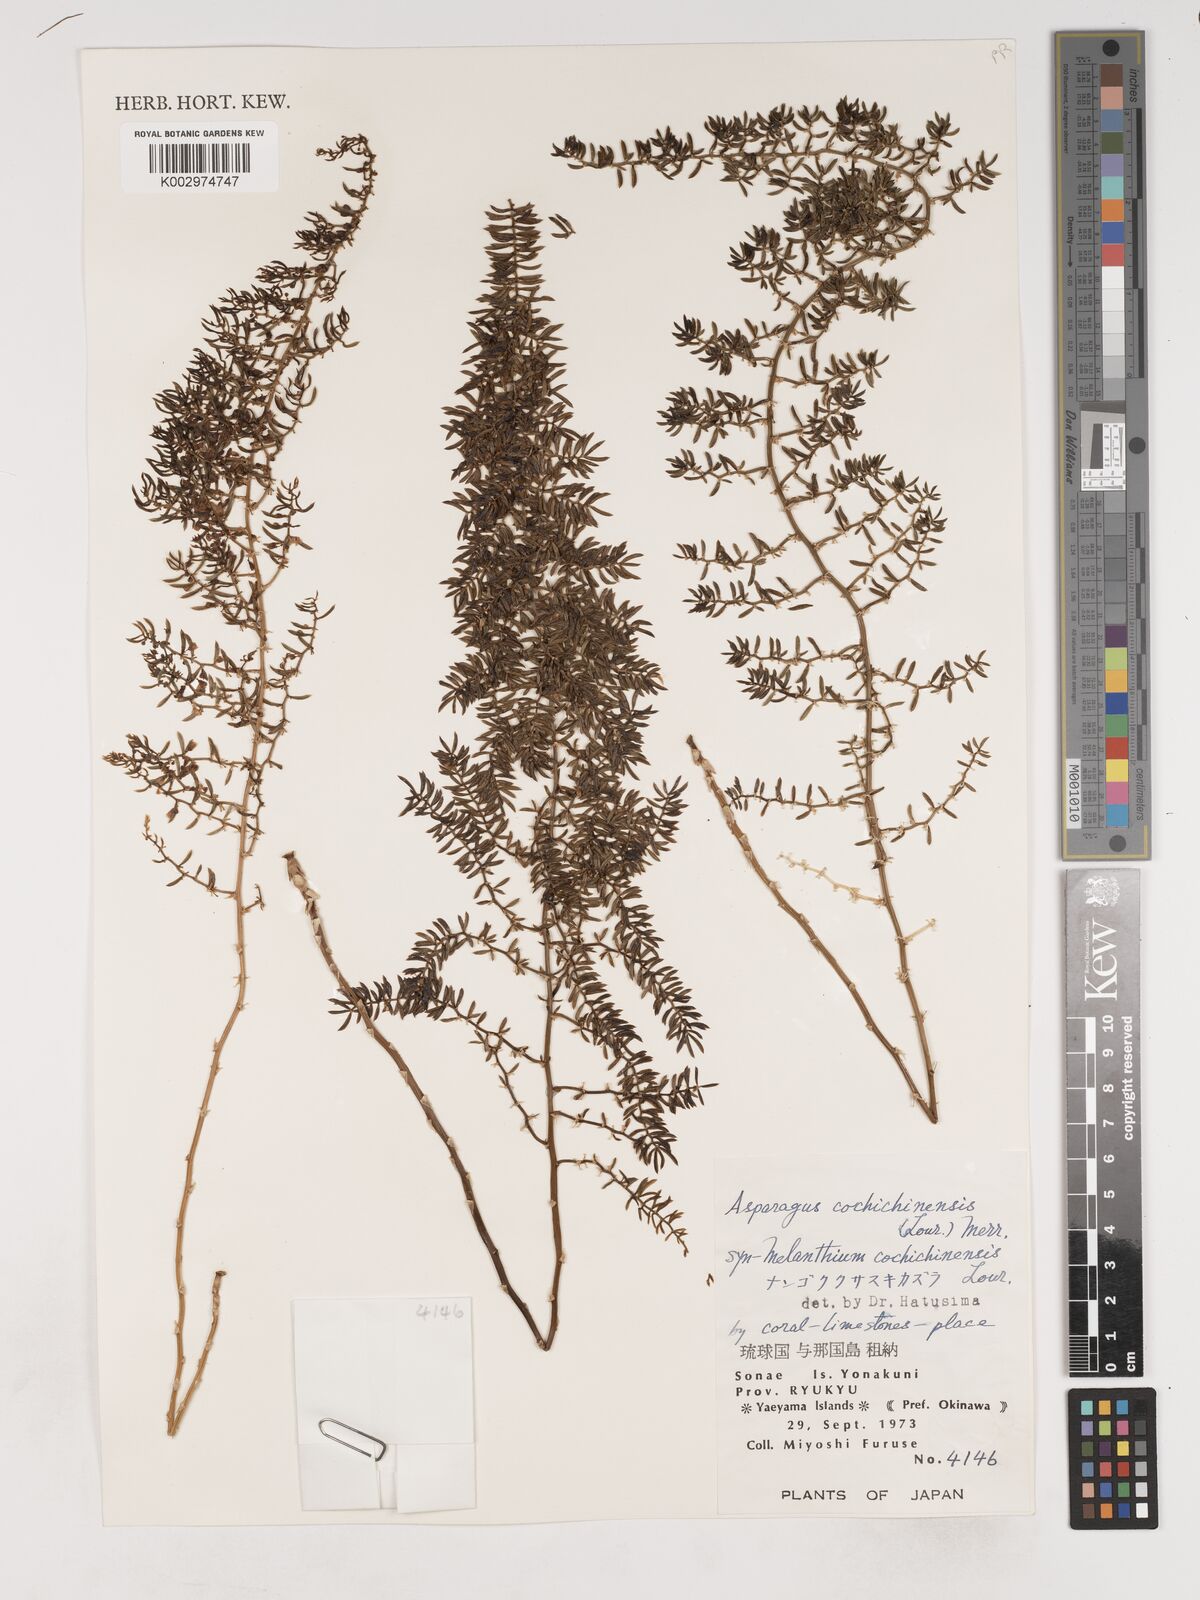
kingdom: Plantae
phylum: Tracheophyta
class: Liliopsida
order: Asparagales
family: Asparagaceae
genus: Asparagus
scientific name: Asparagus cochinchinensis
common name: Chinese asparagus
